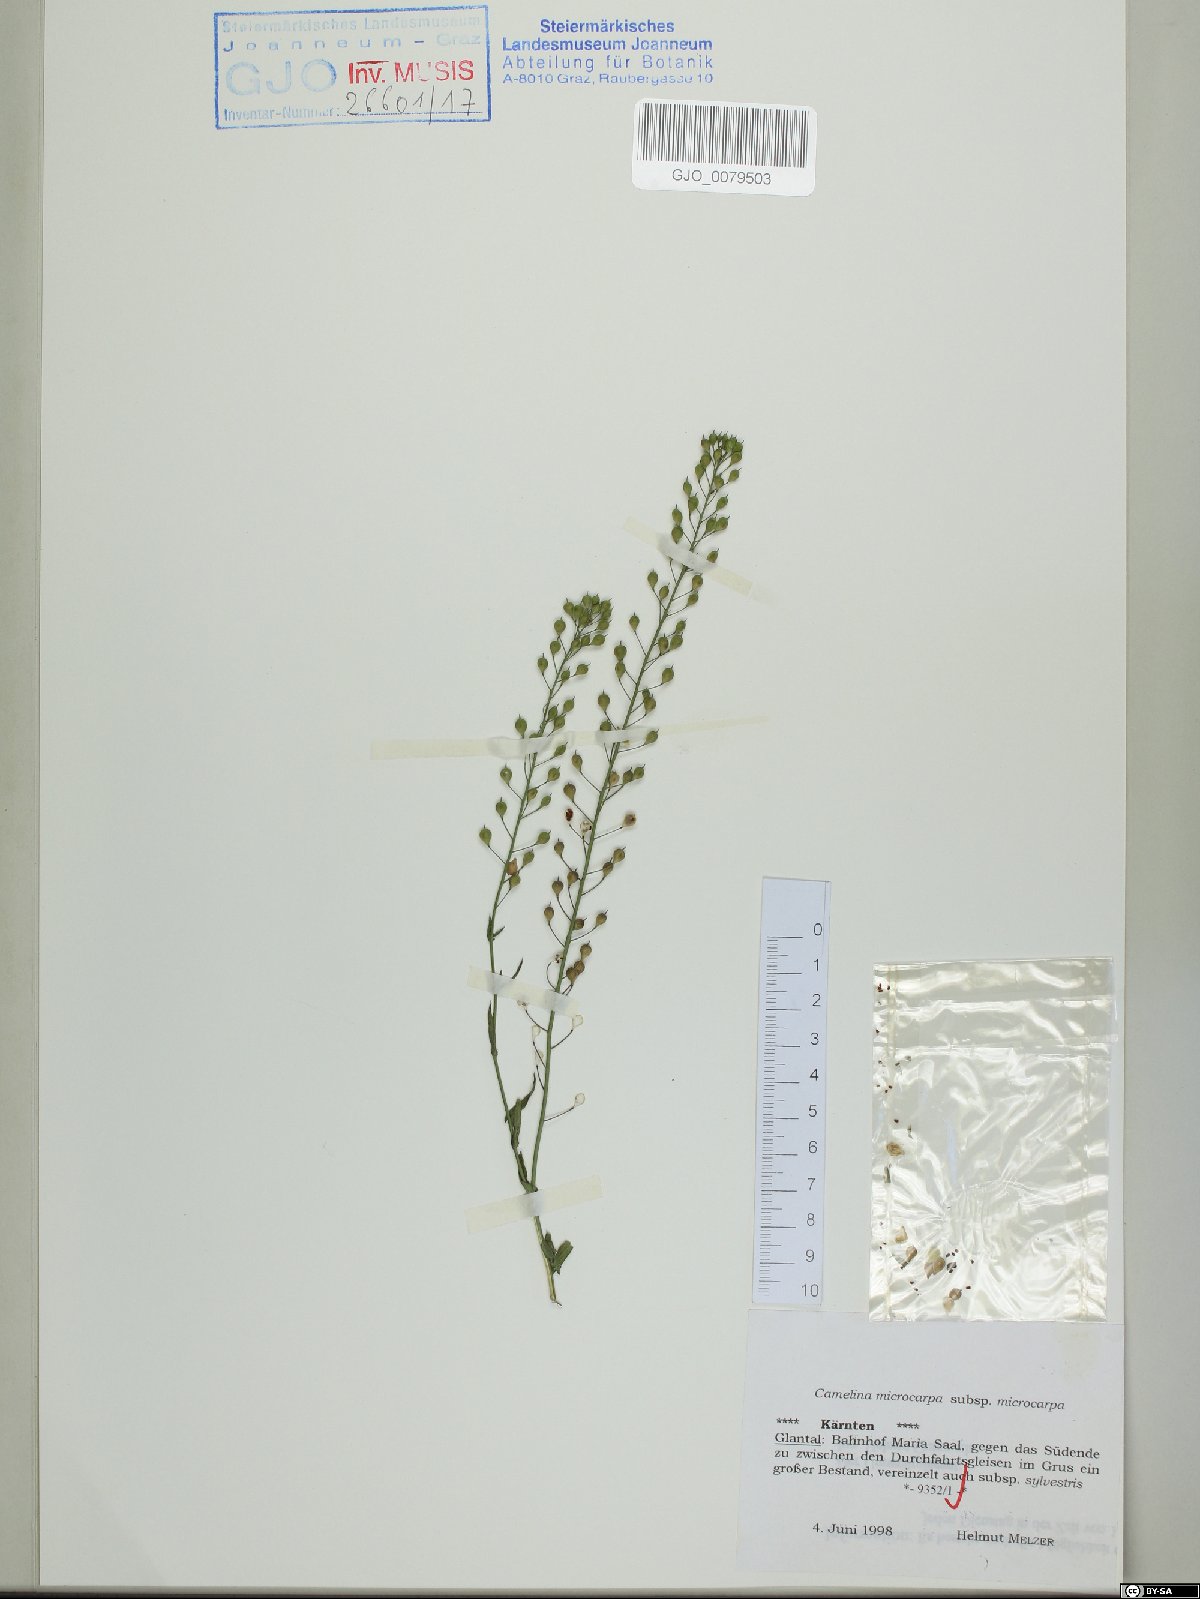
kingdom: Plantae
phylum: Tracheophyta
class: Magnoliopsida
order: Brassicales
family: Brassicaceae
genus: Camelina
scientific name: Camelina microcarpa
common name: Lesser gold-of-pleasure
